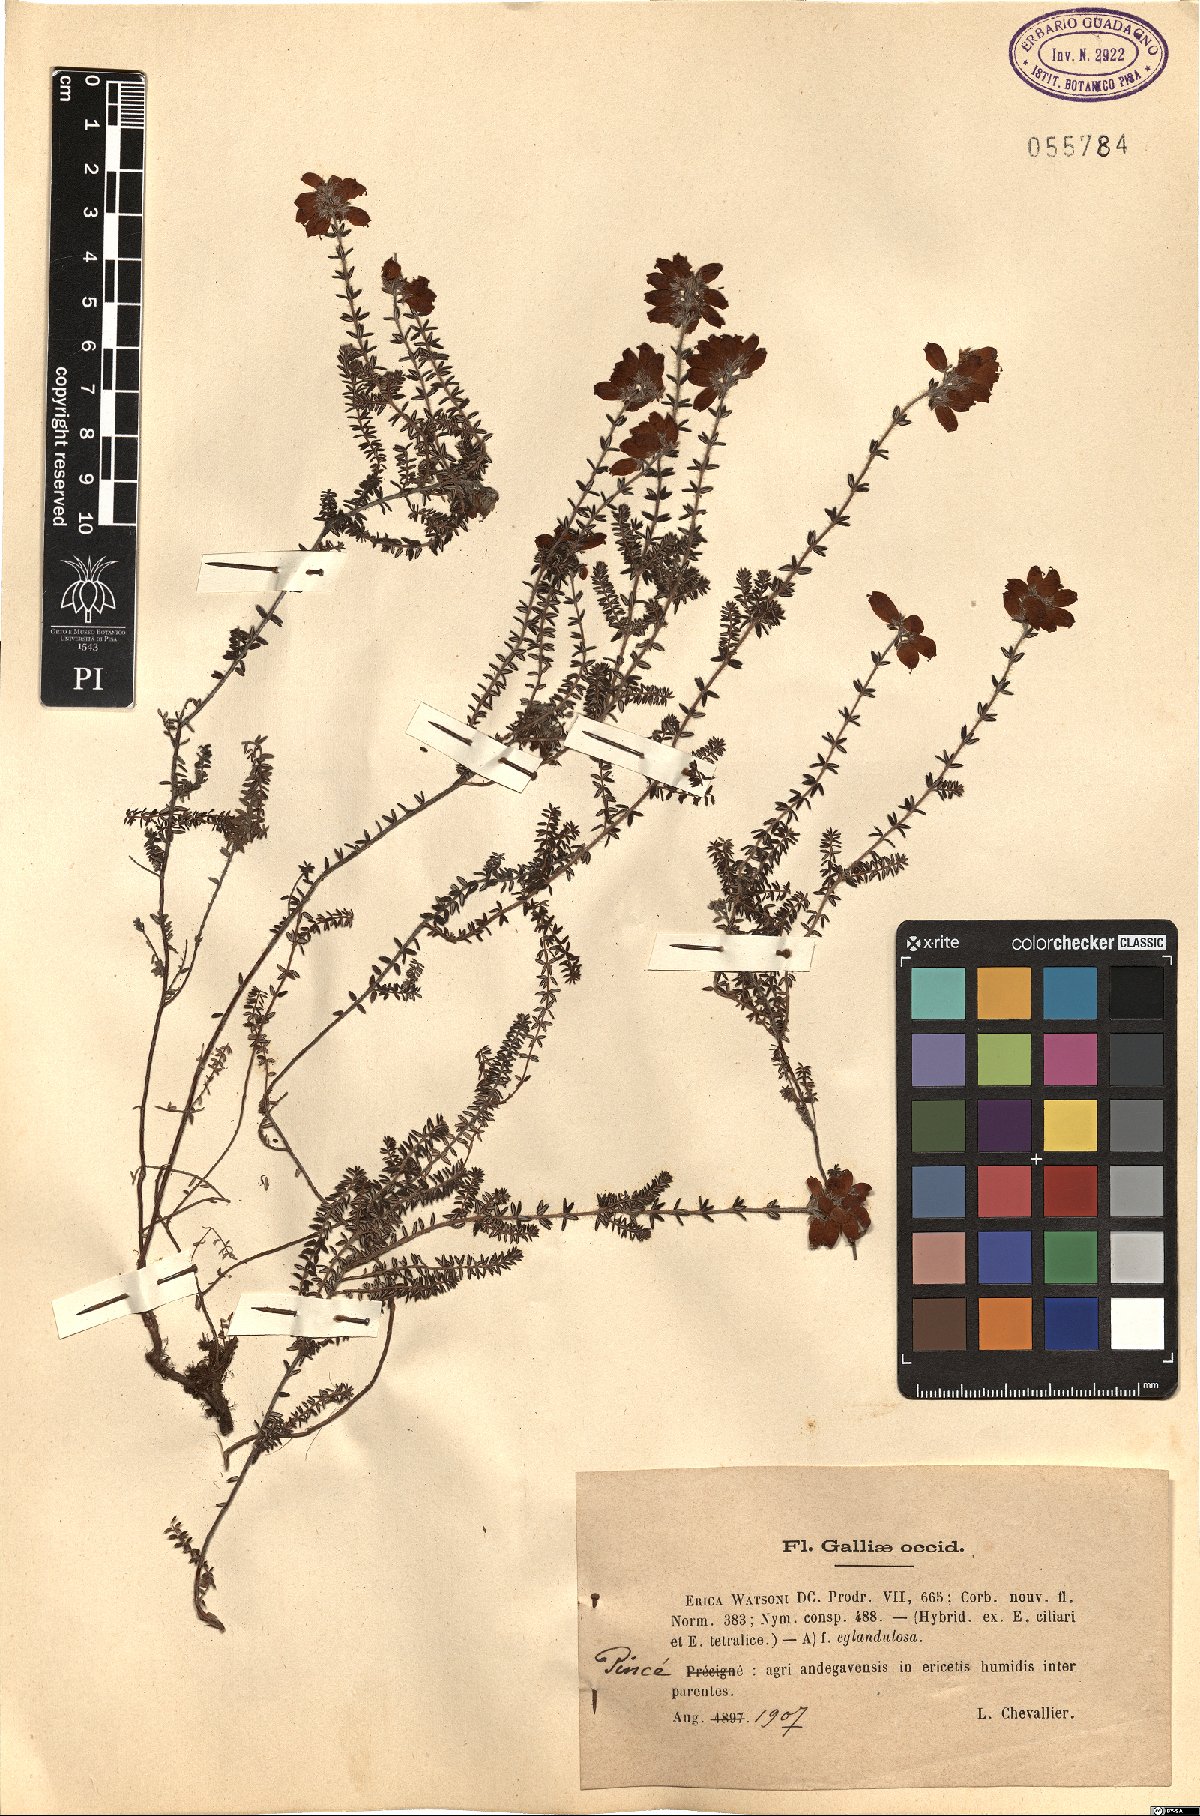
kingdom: Plantae
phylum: Tracheophyta
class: Magnoliopsida
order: Ericales
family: Ericaceae
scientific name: Ericaceae
